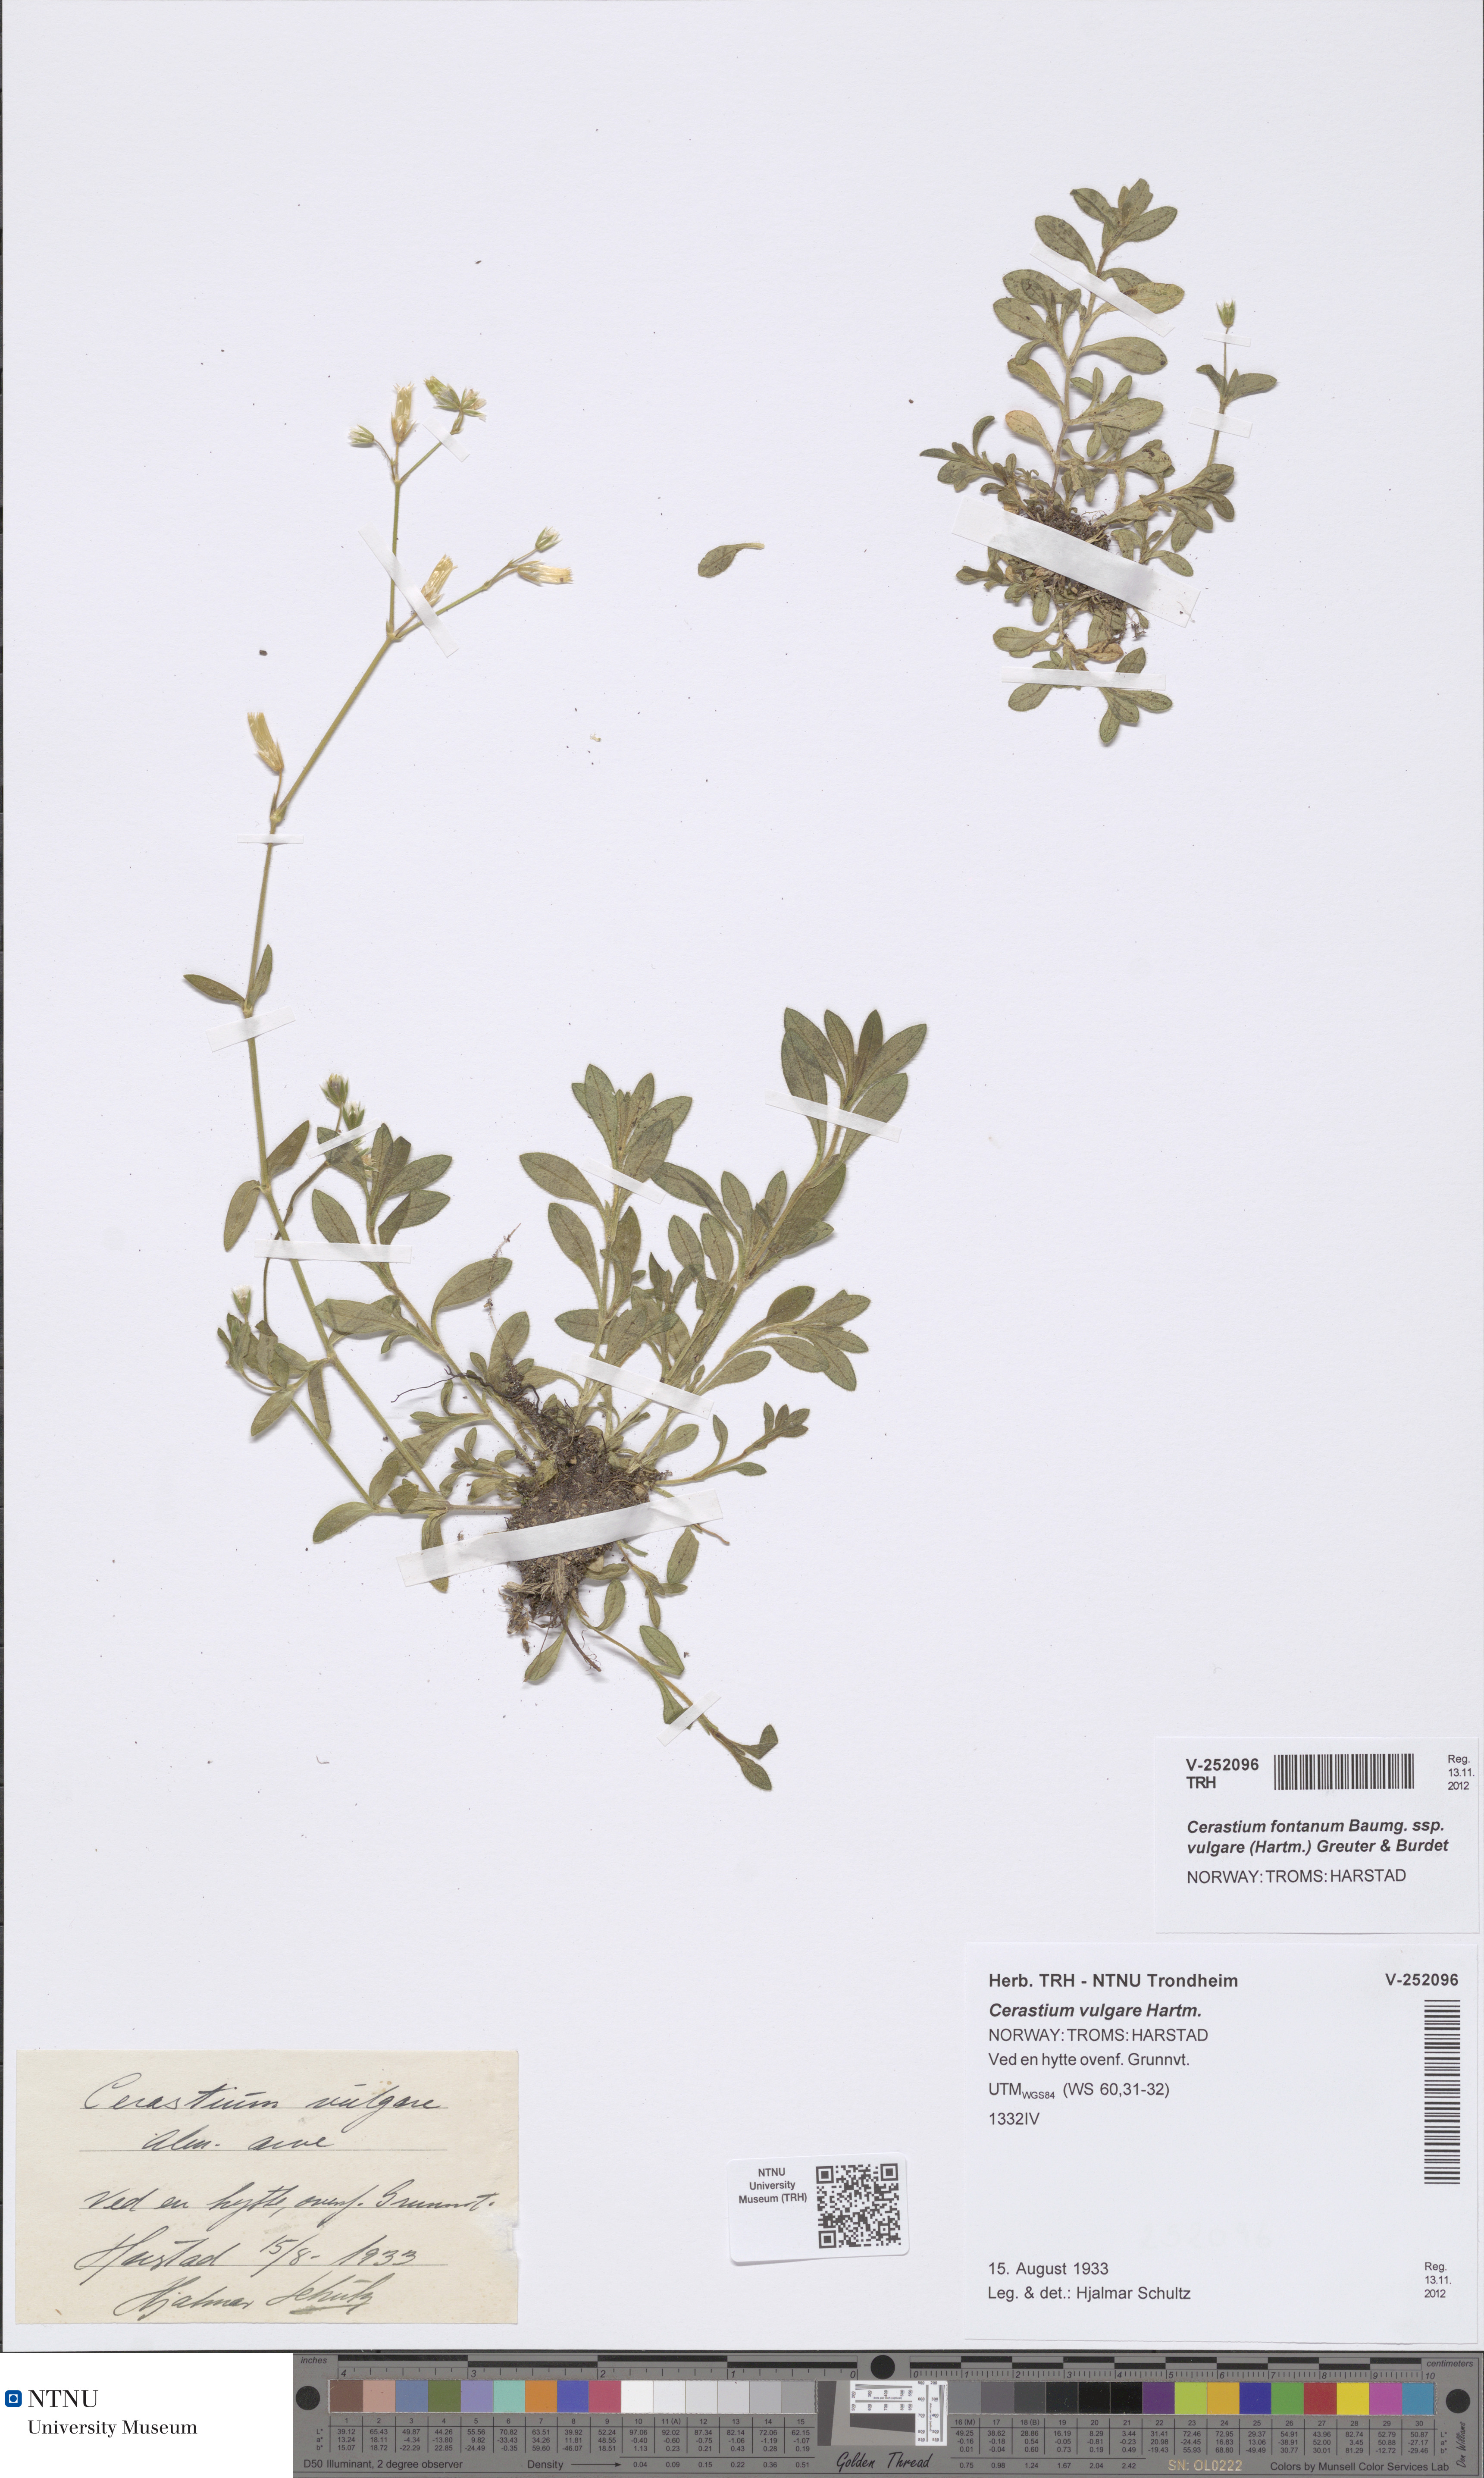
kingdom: Plantae
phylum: Tracheophyta
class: Magnoliopsida
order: Caryophyllales
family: Caryophyllaceae
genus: Cerastium
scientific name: Cerastium holosteoides
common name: Big chickweed
